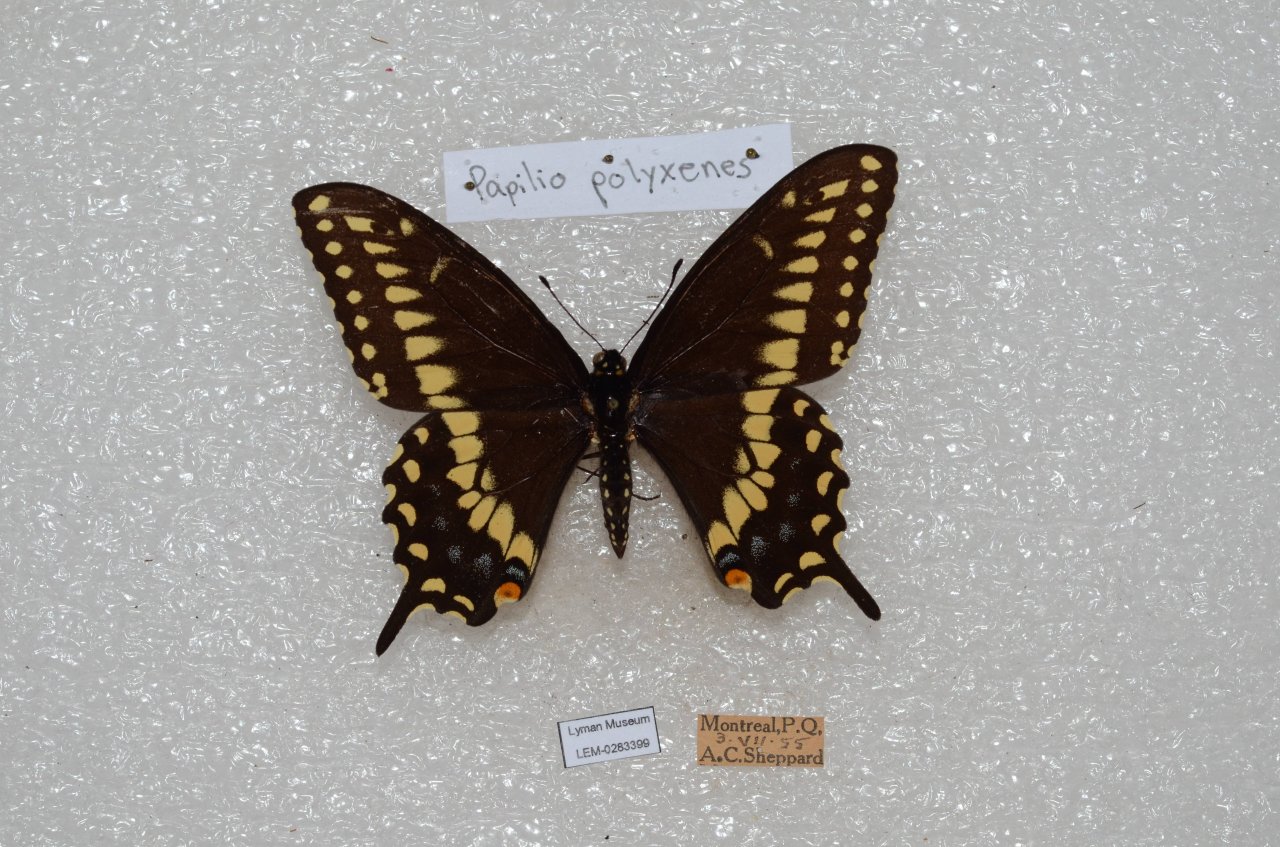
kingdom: Animalia
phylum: Arthropoda
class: Insecta
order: Lepidoptera
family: Papilionidae
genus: Papilio
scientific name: Papilio polyxenes
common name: Black Swallowtail
